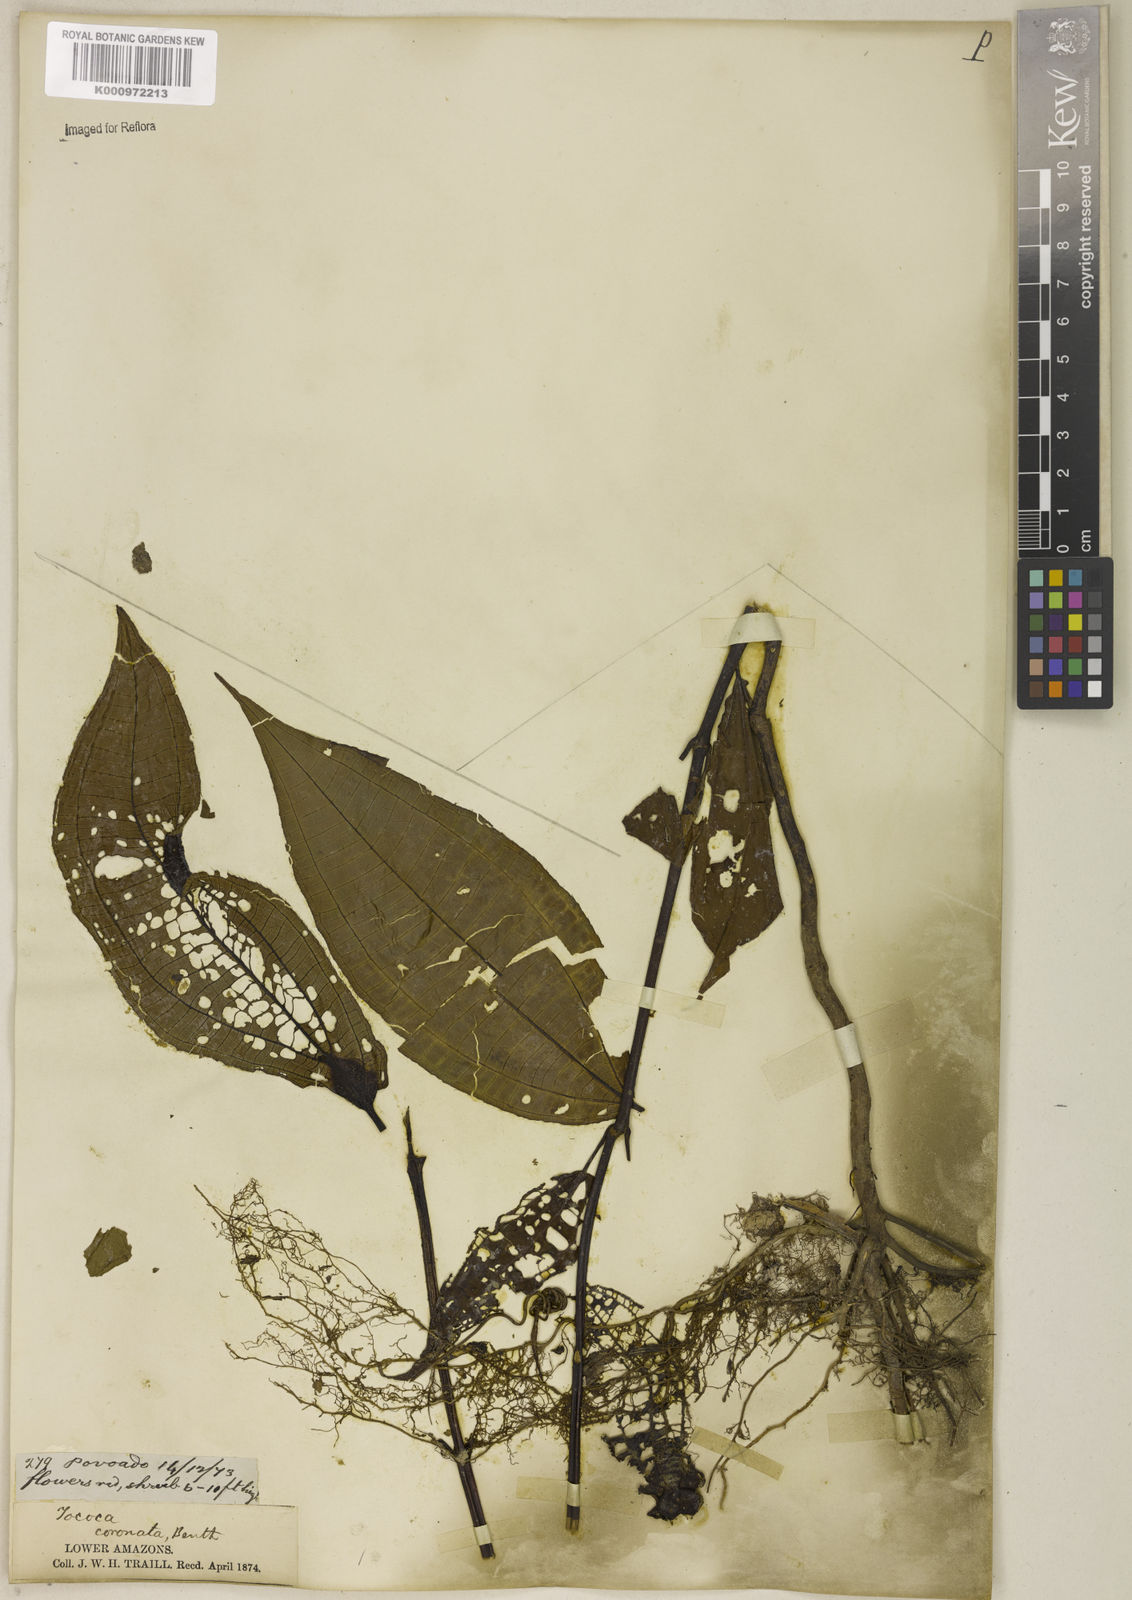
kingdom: Plantae
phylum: Tracheophyta
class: Magnoliopsida
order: Myrtales
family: Melastomataceae
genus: Miconia
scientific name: Miconia tococoronata
